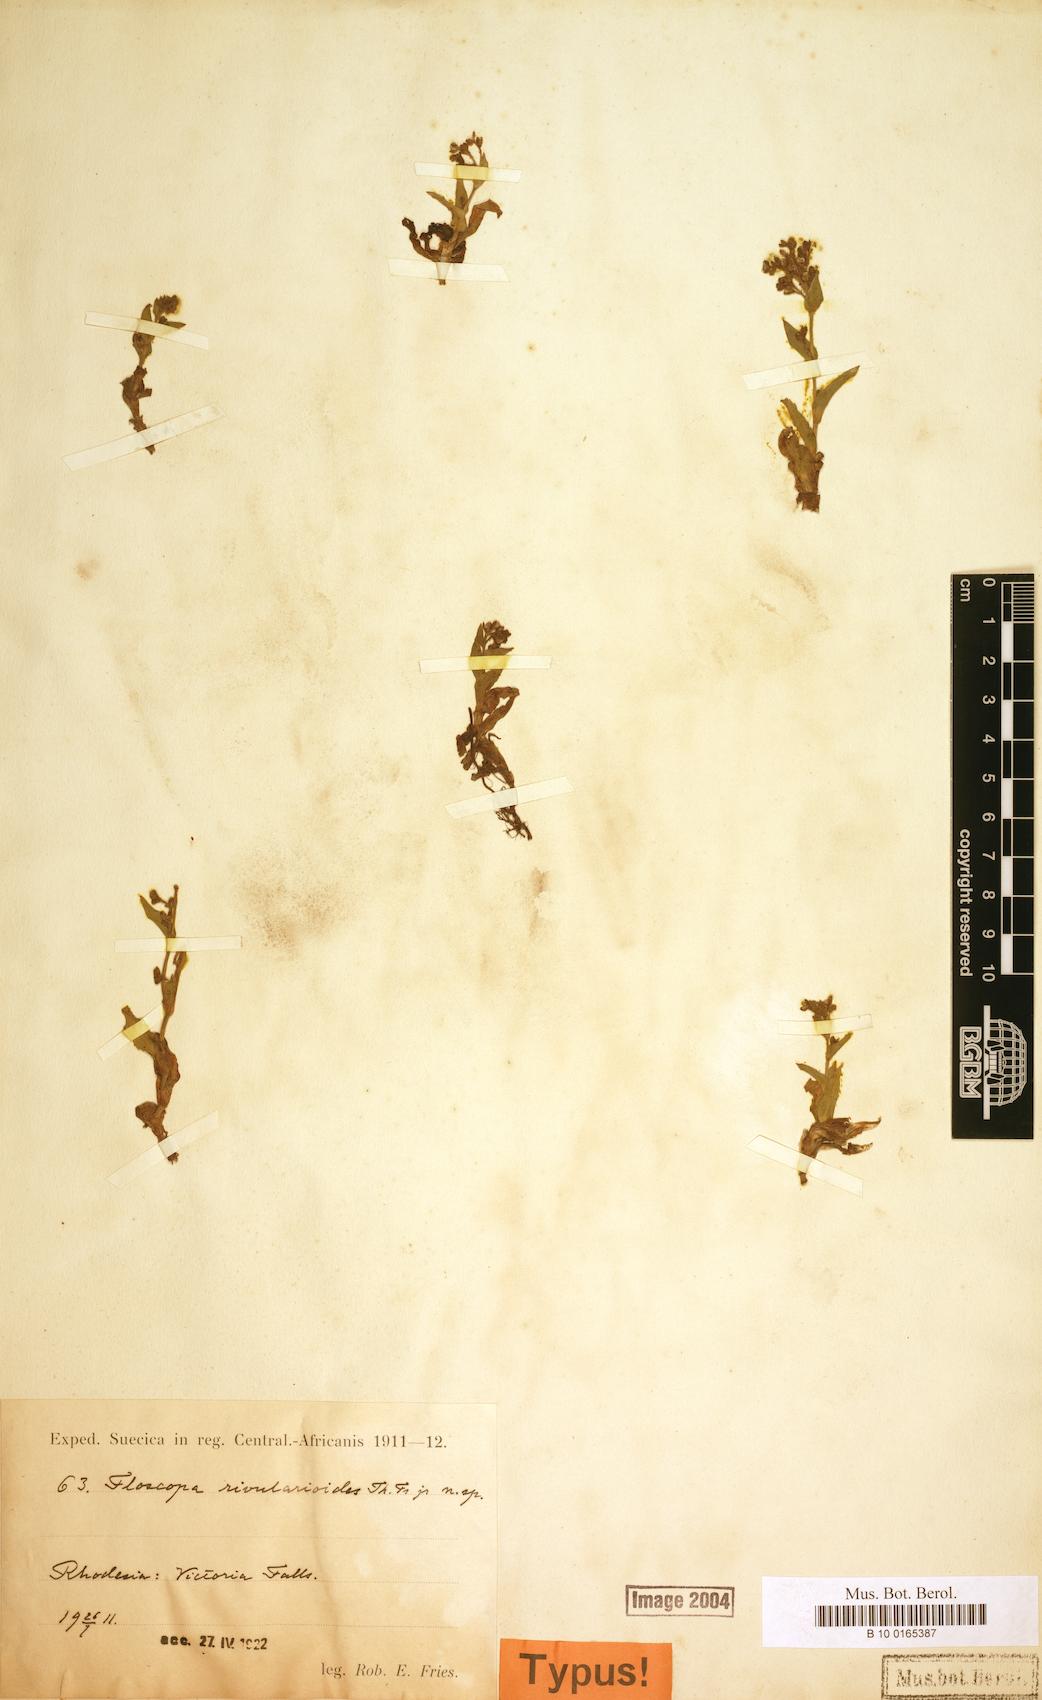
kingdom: Plantae
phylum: Tracheophyta
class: Liliopsida
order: Commelinales
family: Commelinaceae
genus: Floscopa
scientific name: Floscopa rivularioides
